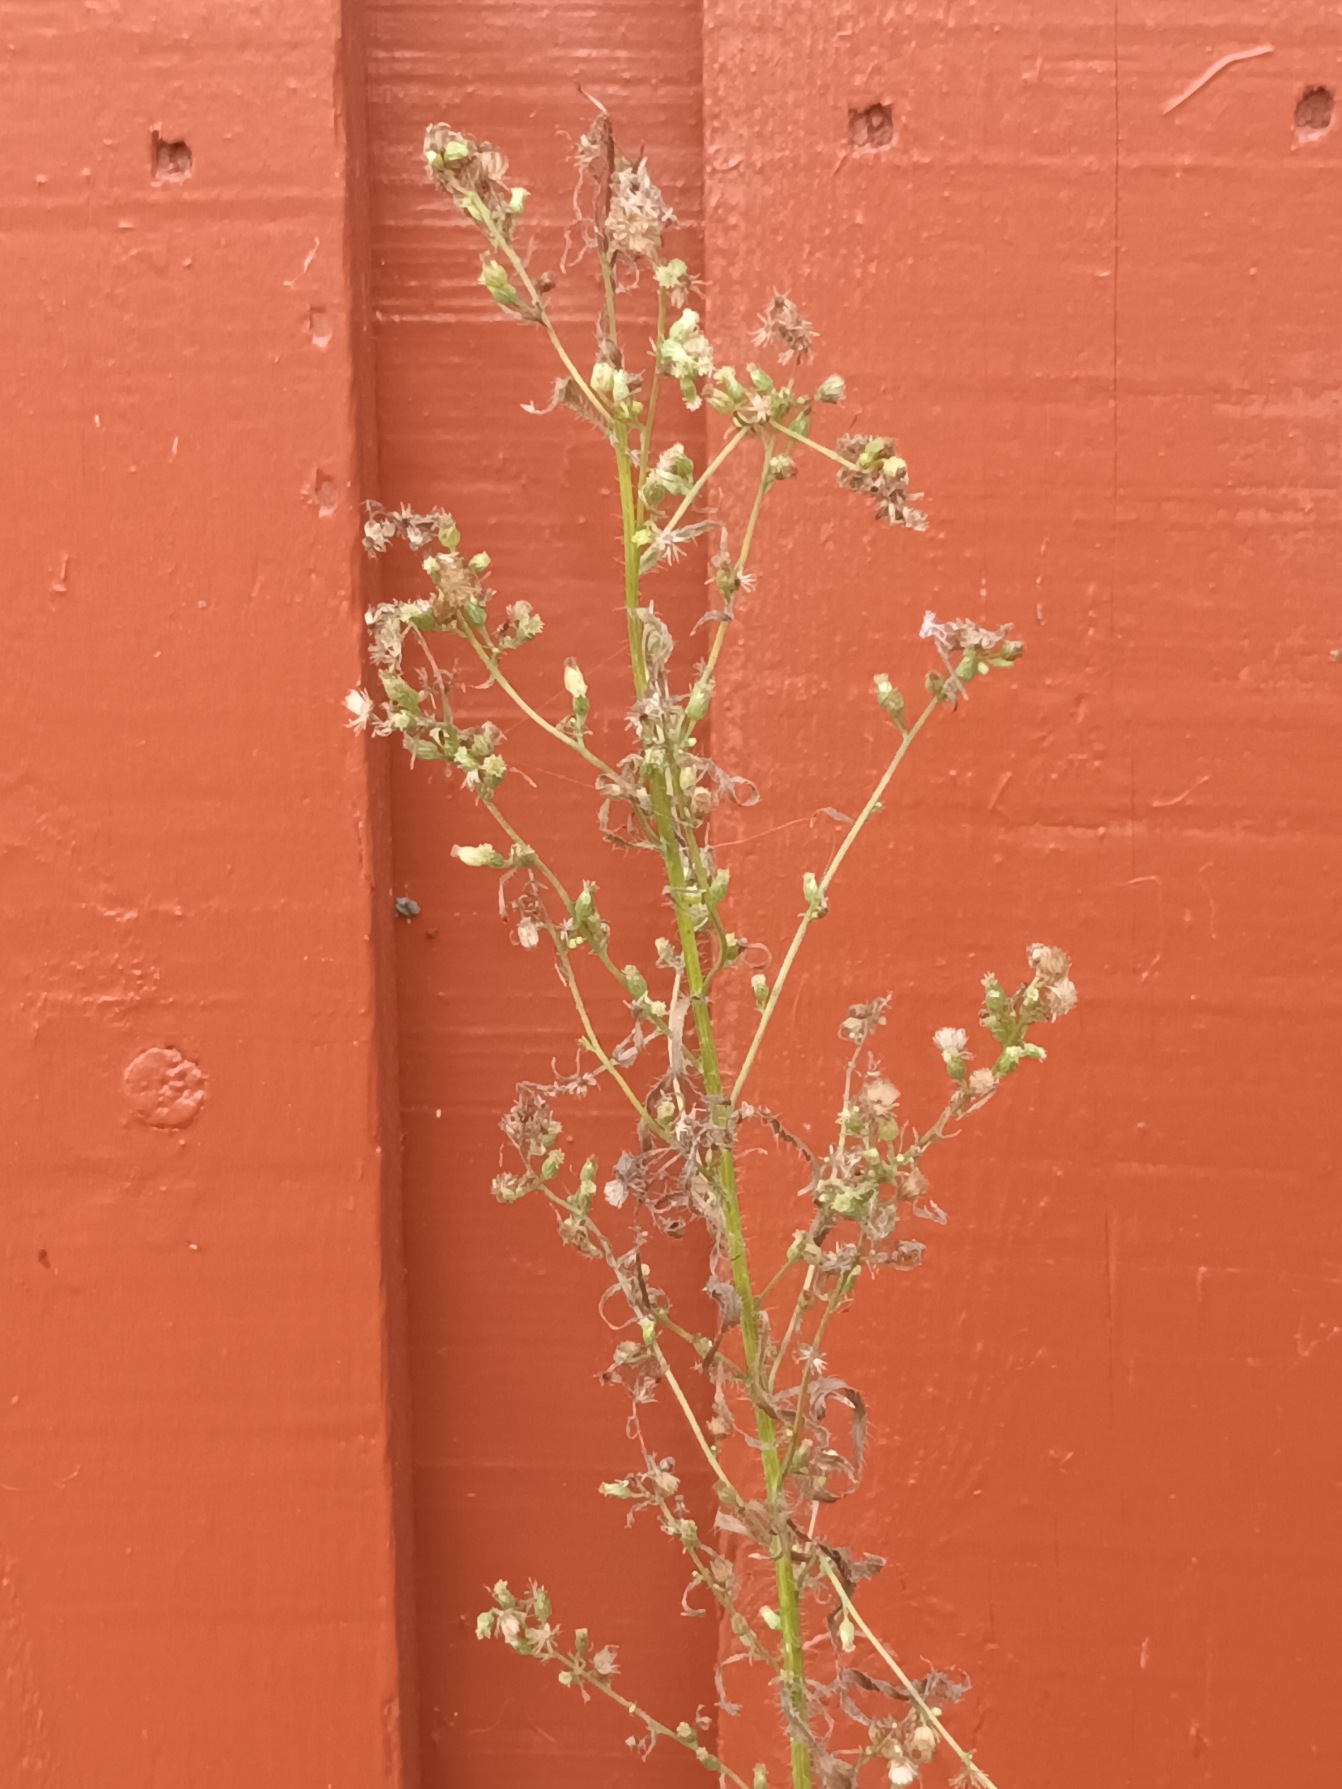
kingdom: Plantae
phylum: Tracheophyta
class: Magnoliopsida
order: Asterales
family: Asteraceae
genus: Erigeron
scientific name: Erigeron canadensis
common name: Kanadisk bakkestjerne
